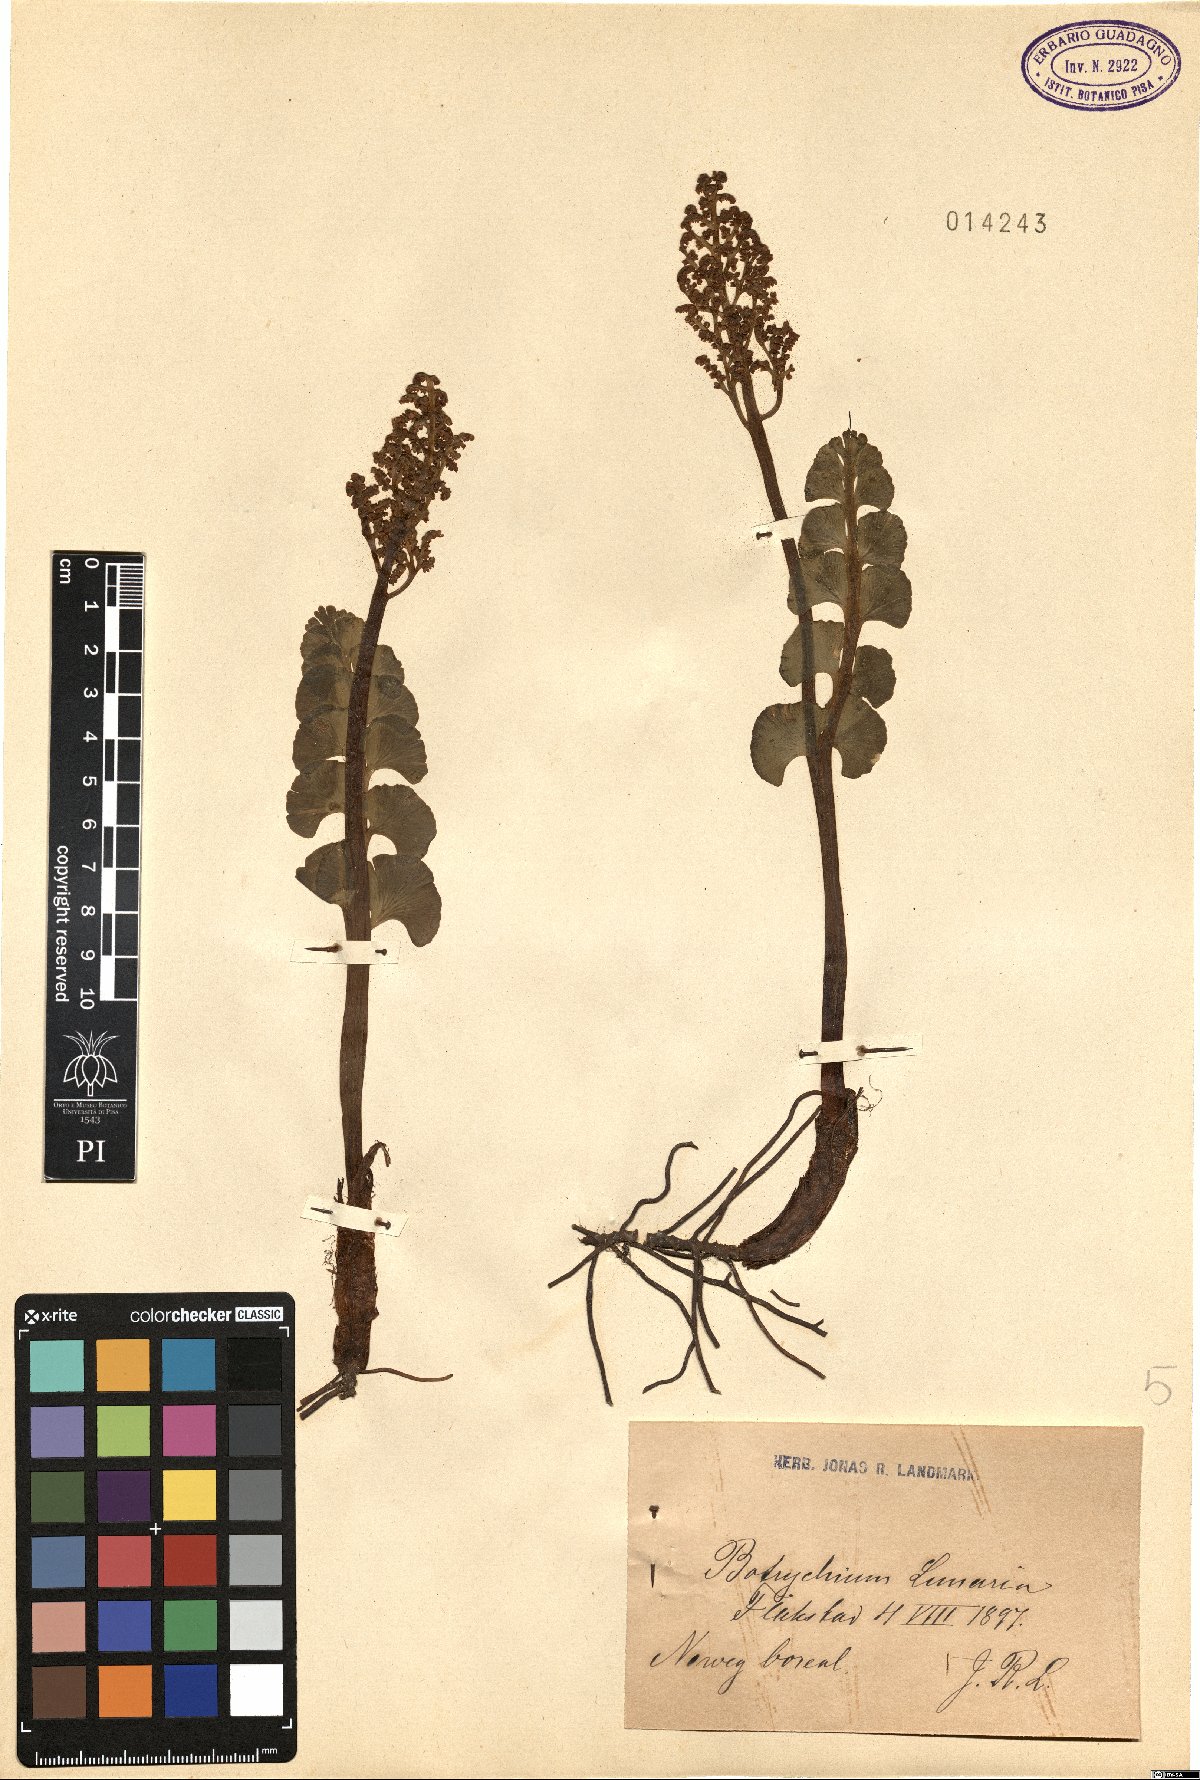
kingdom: Plantae
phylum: Tracheophyta
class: Polypodiopsida
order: Ophioglossales
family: Ophioglossaceae
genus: Botrychium
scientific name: Botrychium lunaria
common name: Moonwort
